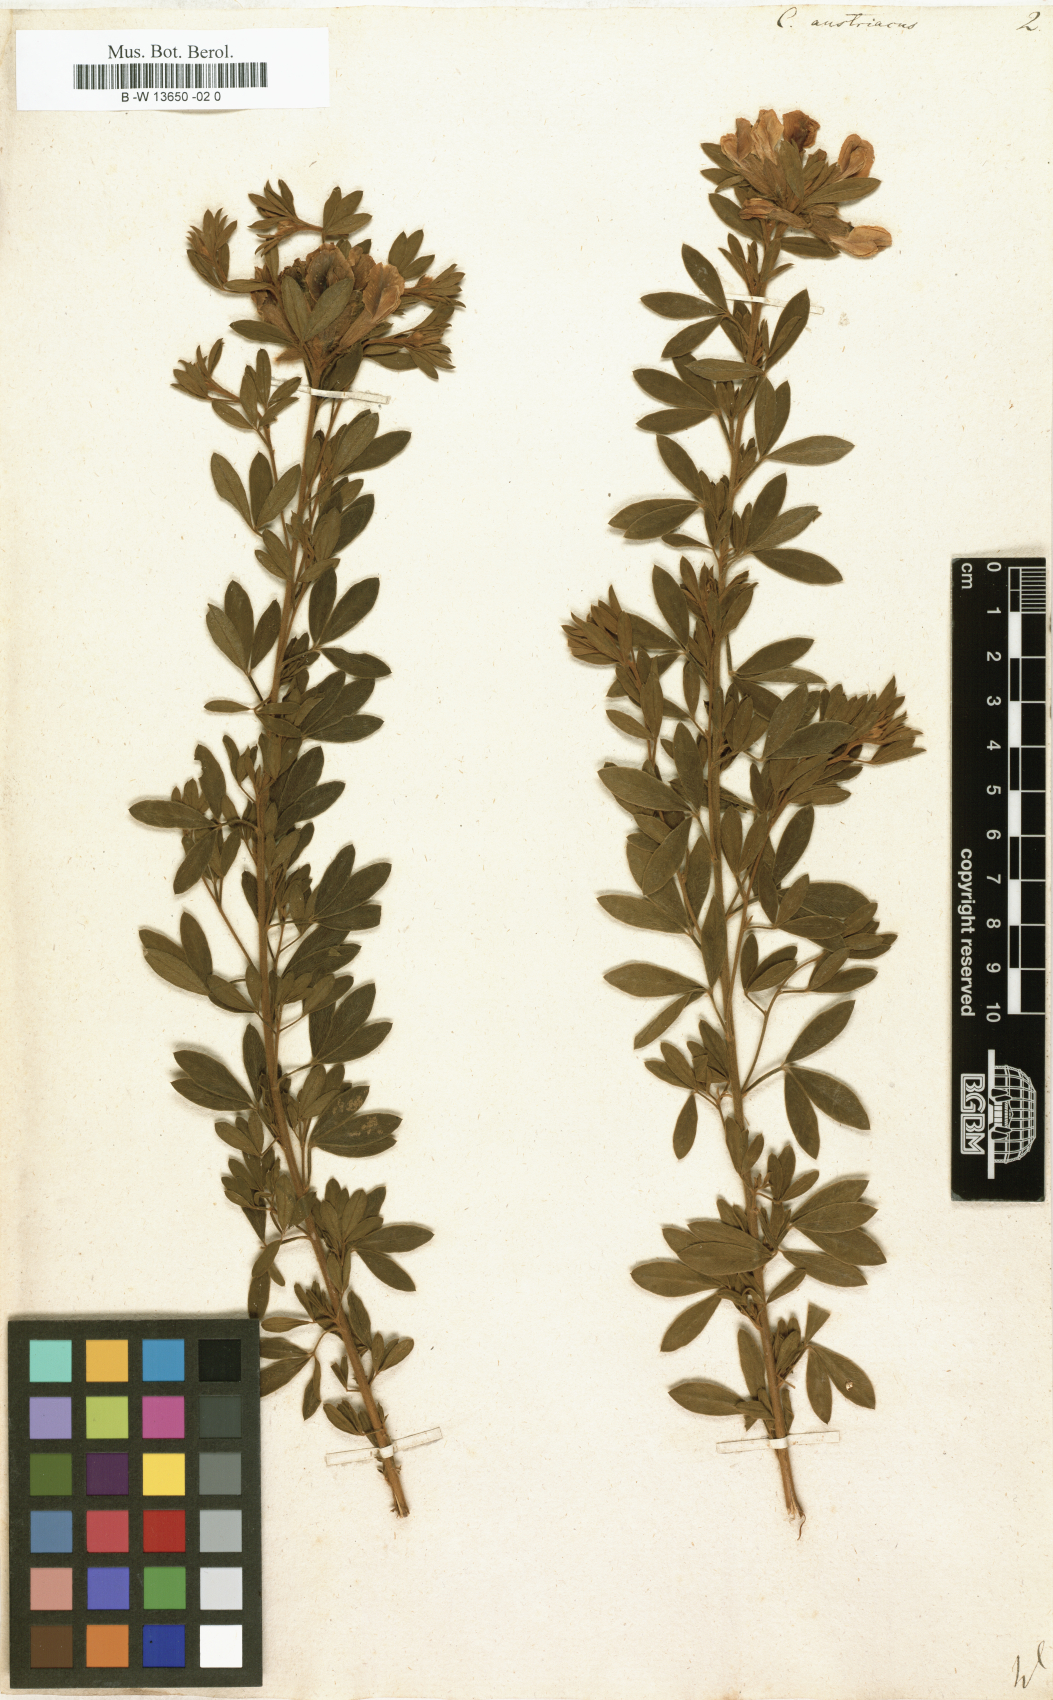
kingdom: Plantae
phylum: Tracheophyta
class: Magnoliopsida
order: Fabales
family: Fabaceae
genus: Chamaecytisus
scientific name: Chamaecytisus austriacus
